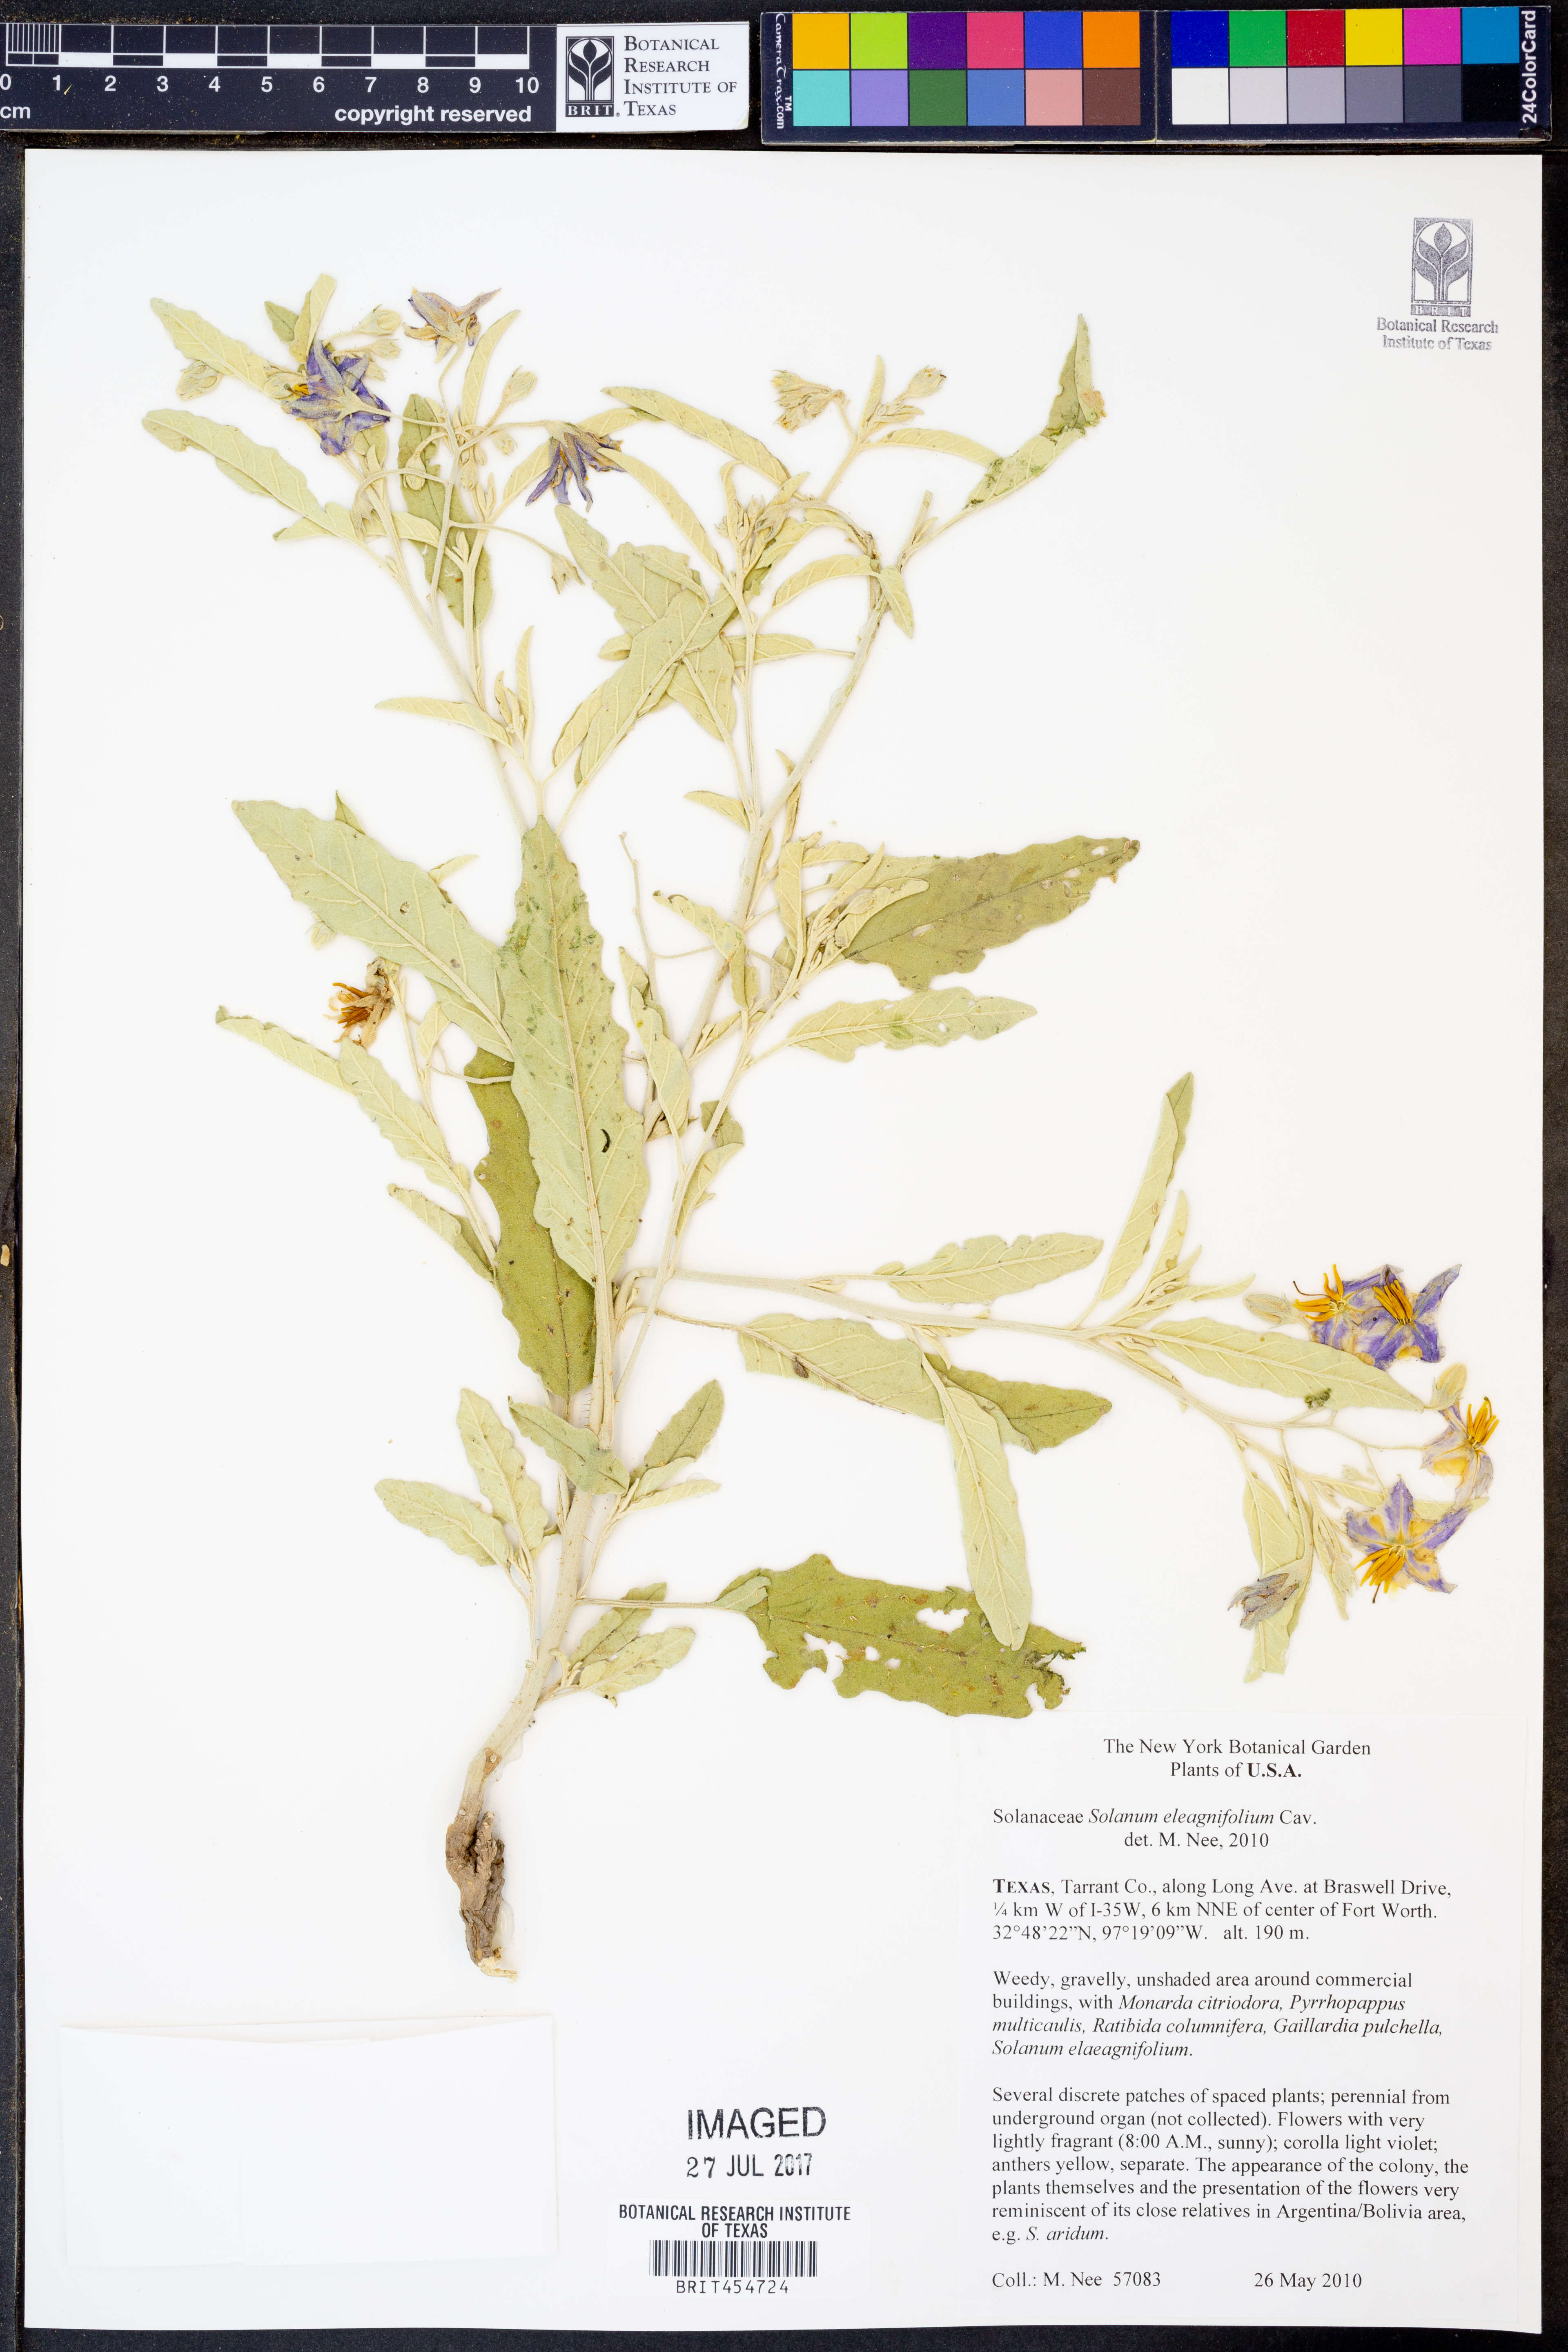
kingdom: Plantae
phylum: Tracheophyta
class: Magnoliopsida
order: Solanales
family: Solanaceae
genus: Solanum
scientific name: Solanum elaeagnifolium
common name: Silverleaf nightshade
